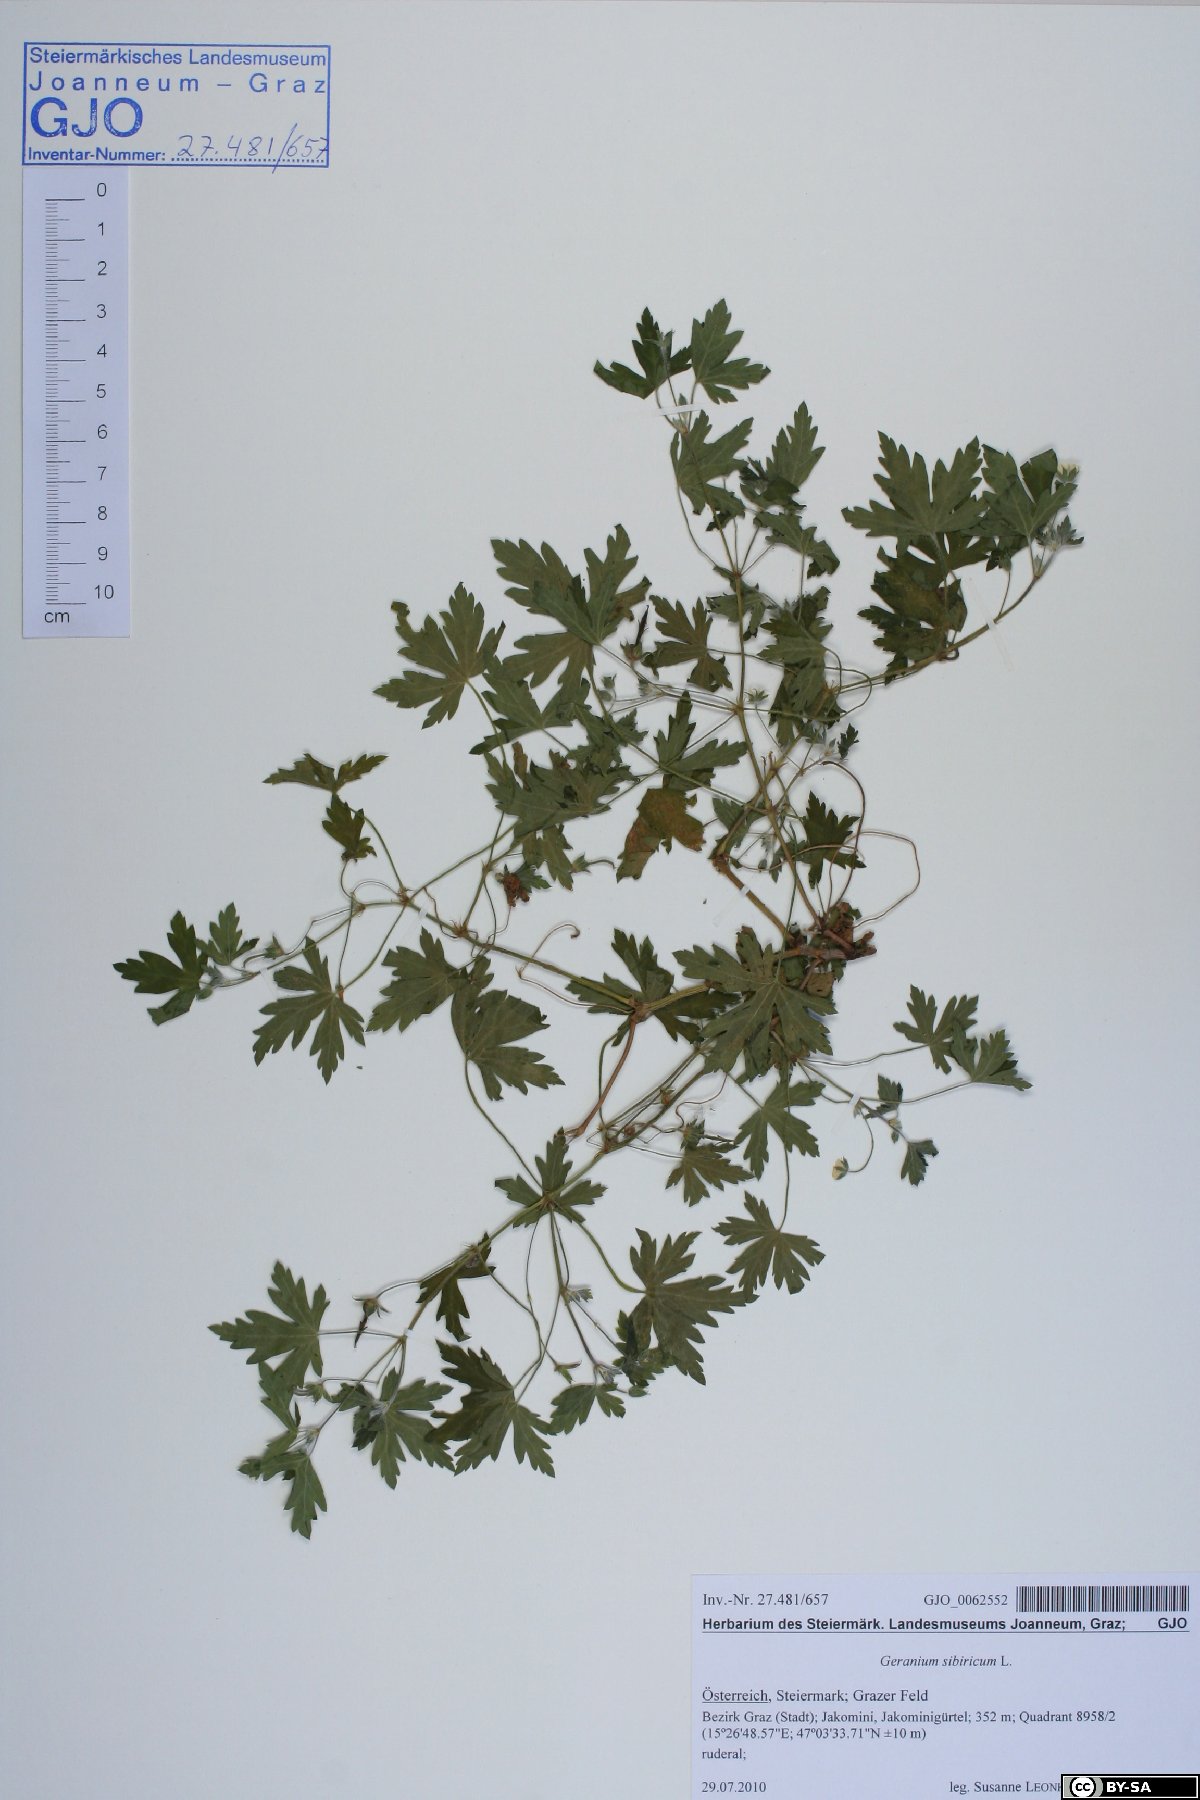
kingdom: Plantae
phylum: Tracheophyta
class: Magnoliopsida
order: Geraniales
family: Geraniaceae
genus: Geranium
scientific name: Geranium sibiricum
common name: Siberian crane's-bill
